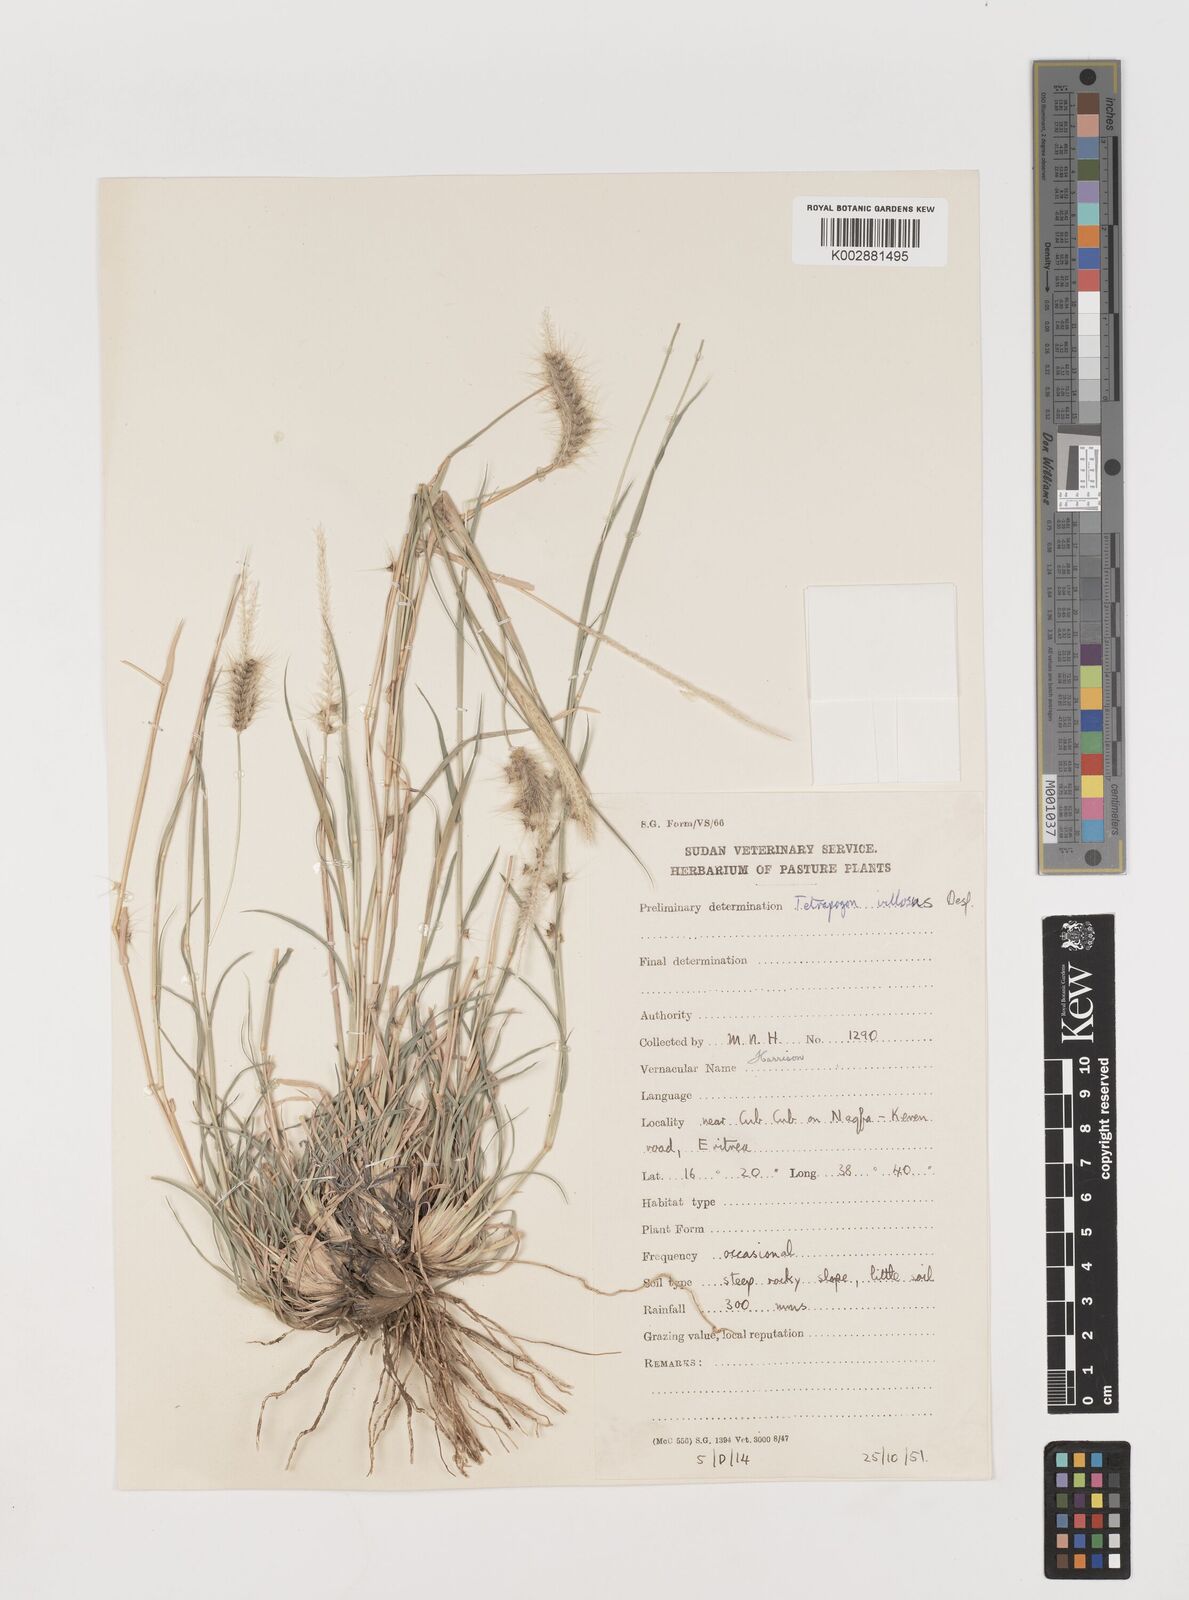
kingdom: Plantae
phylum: Tracheophyta
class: Liliopsida
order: Poales
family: Poaceae
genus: Tetrapogon
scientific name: Tetrapogon villosus
